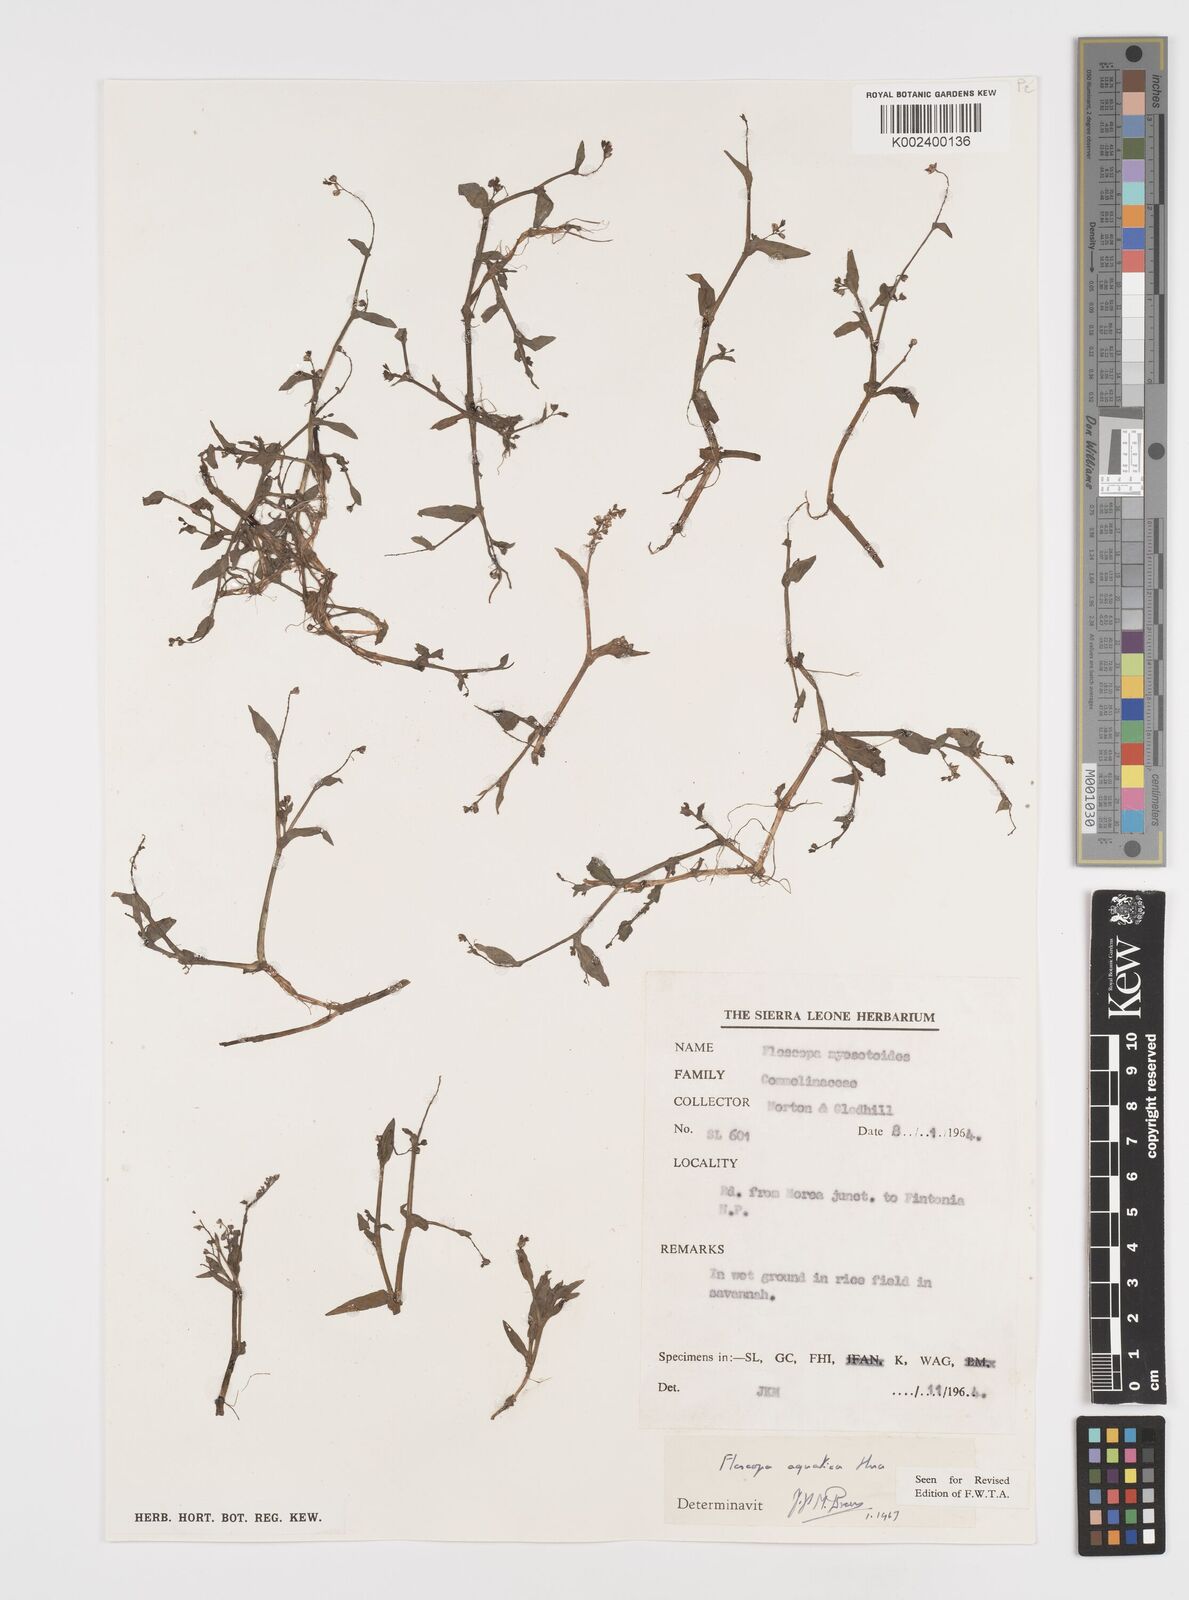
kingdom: Plantae
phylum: Tracheophyta
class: Liliopsida
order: Commelinales
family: Commelinaceae
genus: Floscopa
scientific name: Floscopa aquatica
